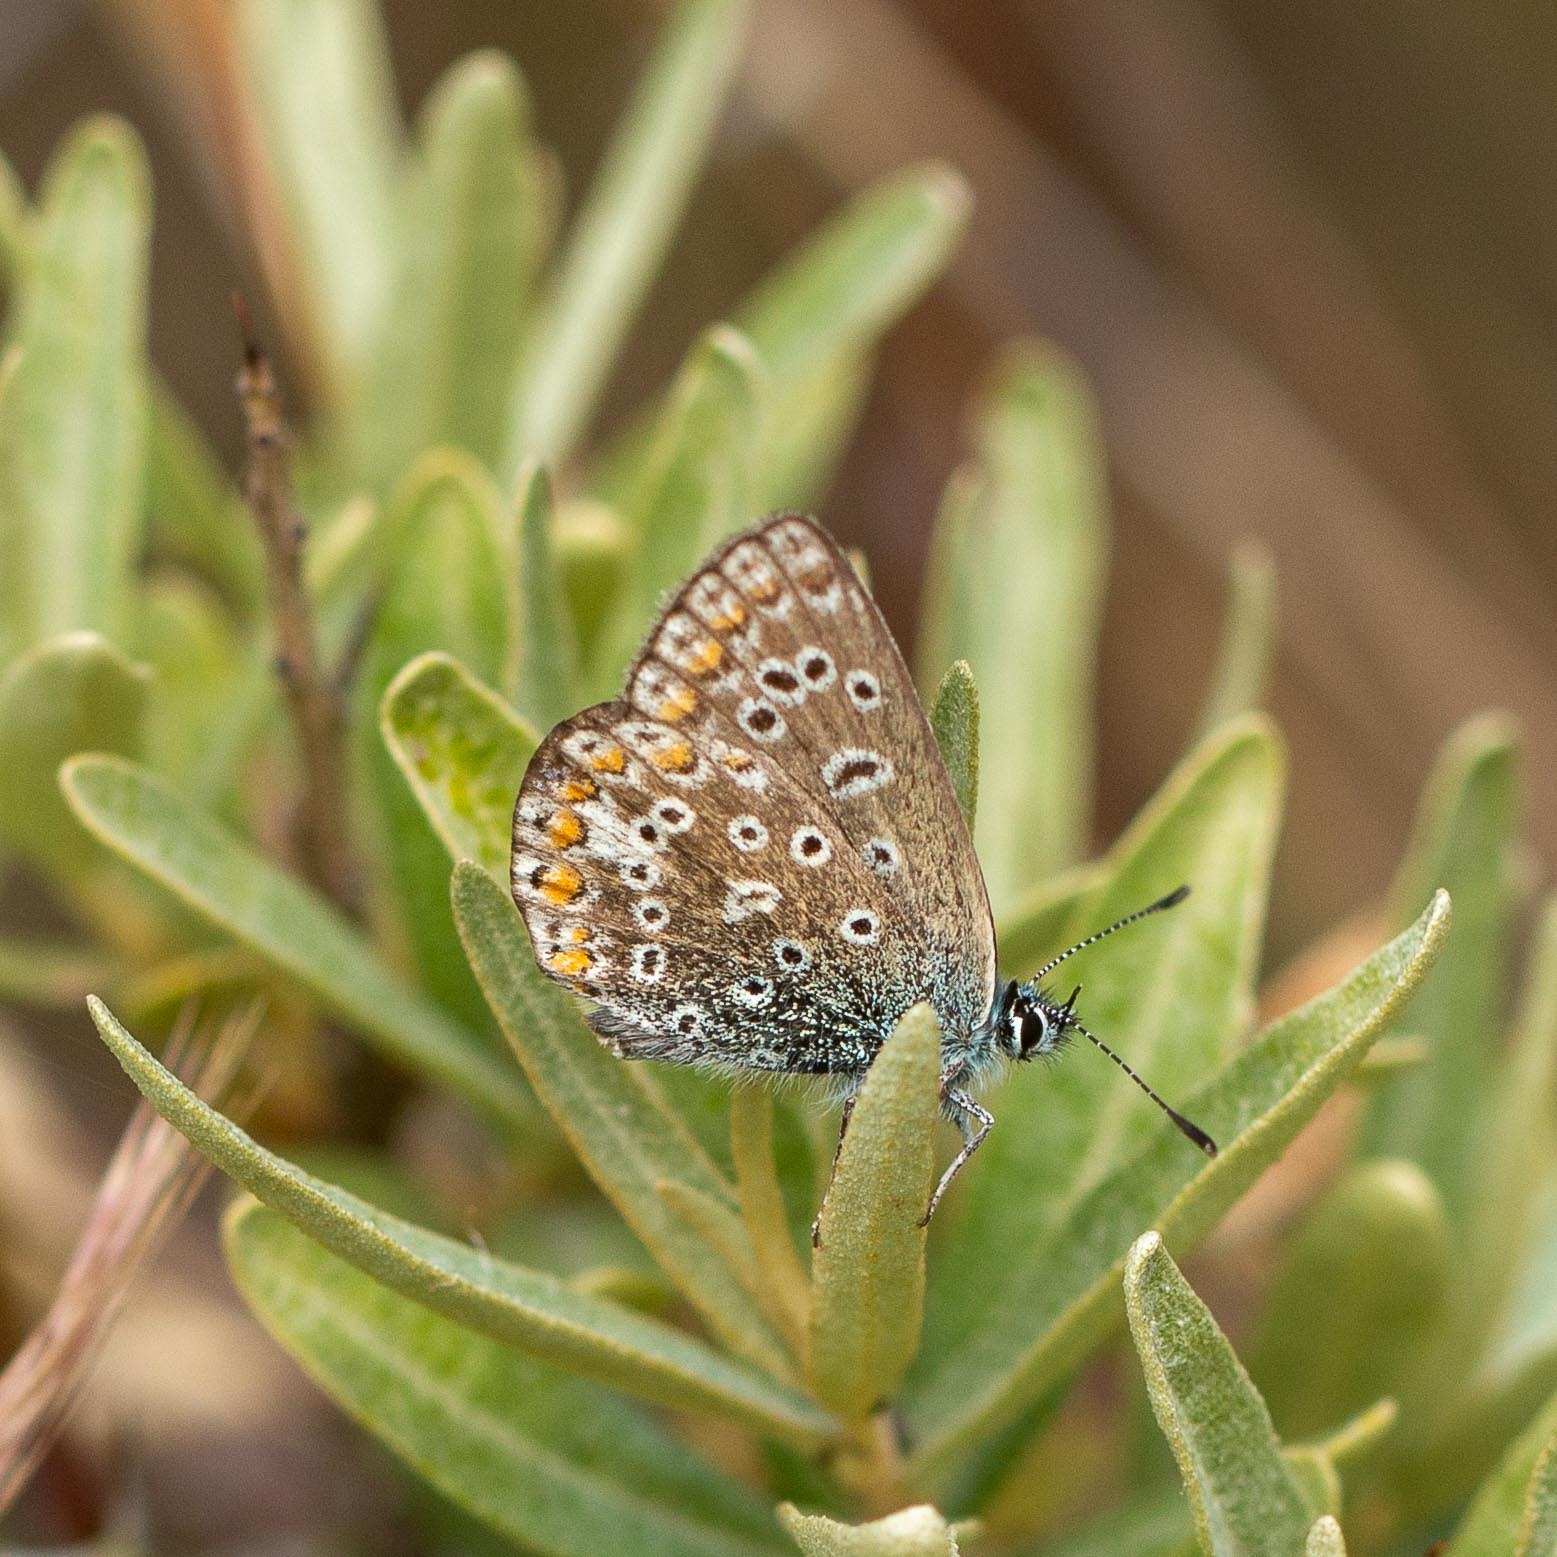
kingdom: Animalia
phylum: Arthropoda
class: Insecta
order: Lepidoptera
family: Lycaenidae
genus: Polyommatus
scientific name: Polyommatus icarus
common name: Almindelig blåfugl
